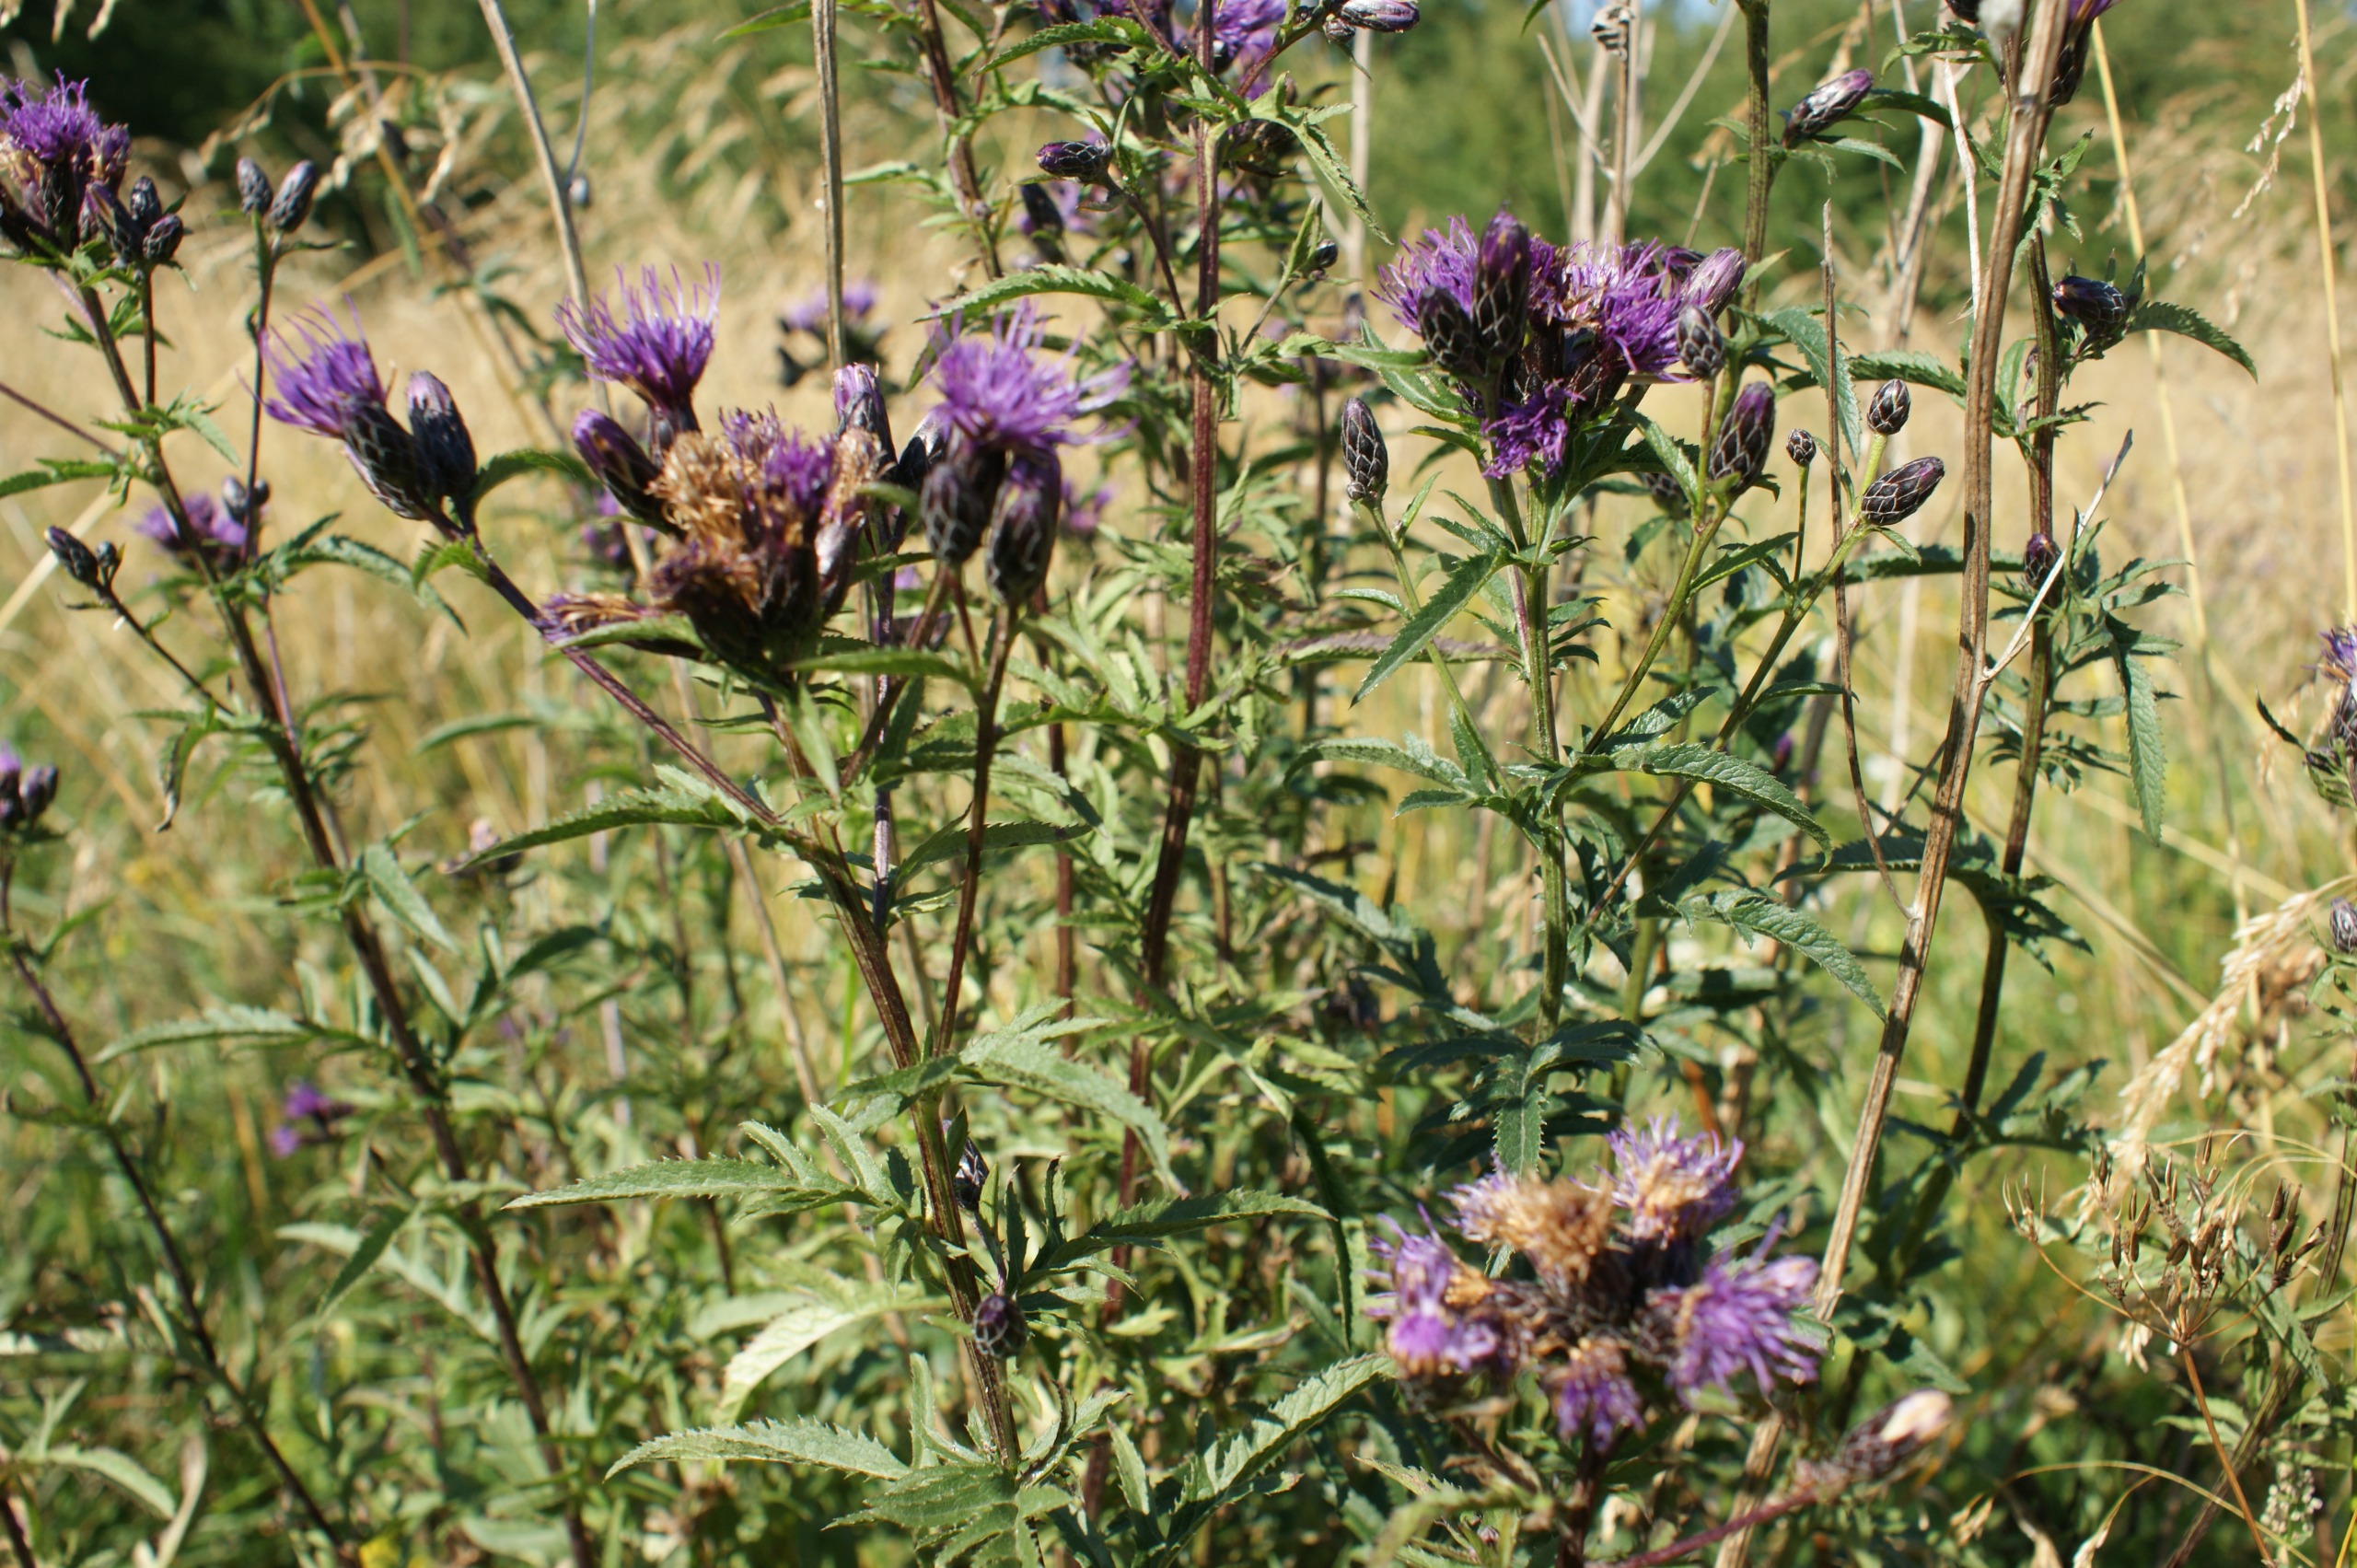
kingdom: Plantae
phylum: Tracheophyta
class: Magnoliopsida
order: Asterales
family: Asteraceae
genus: Serratula
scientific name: Serratula tinctoria
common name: Eng-skær
